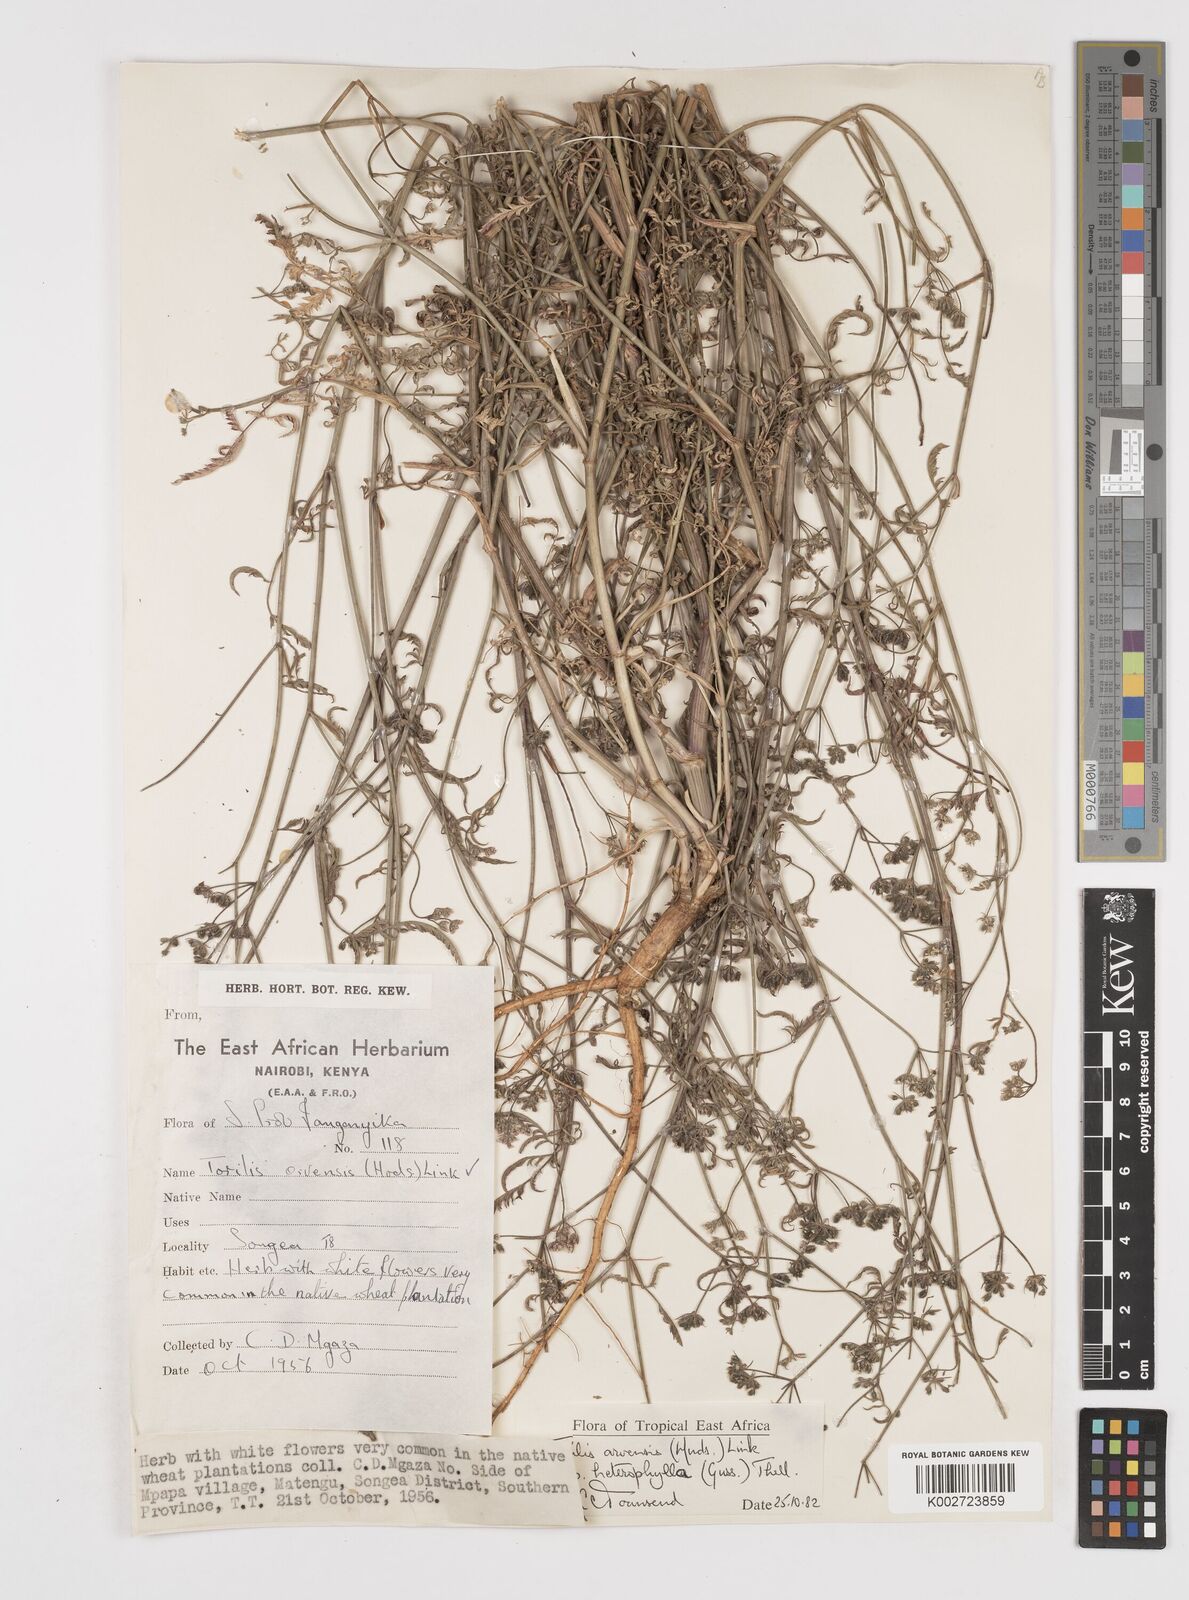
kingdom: Plantae
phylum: Tracheophyta
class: Magnoliopsida
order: Apiales
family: Apiaceae
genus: Torilis
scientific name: Torilis arvensis
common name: Spreading hedge-parsley
